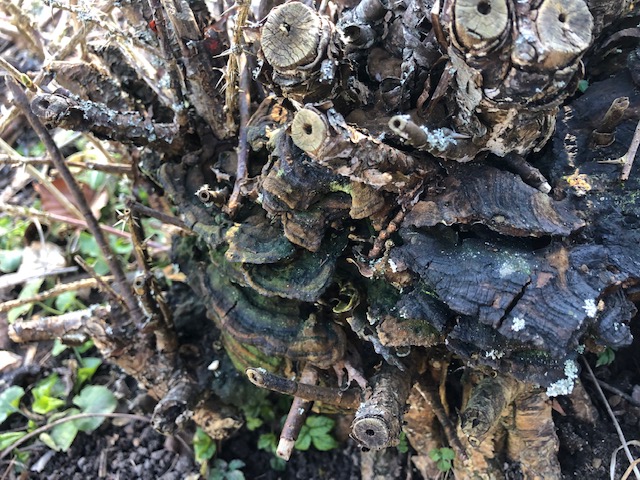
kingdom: Fungi
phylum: Basidiomycota
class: Agaricomycetes
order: Hymenochaetales
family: Hymenochaetaceae
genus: Phylloporia
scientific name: Phylloporia ribis
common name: ribs-ildporesvamp
